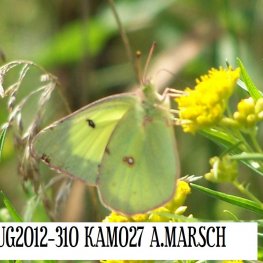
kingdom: Animalia
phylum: Arthropoda
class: Insecta
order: Lepidoptera
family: Pieridae
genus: Colias
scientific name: Colias philodice
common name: Clouded Sulphur
